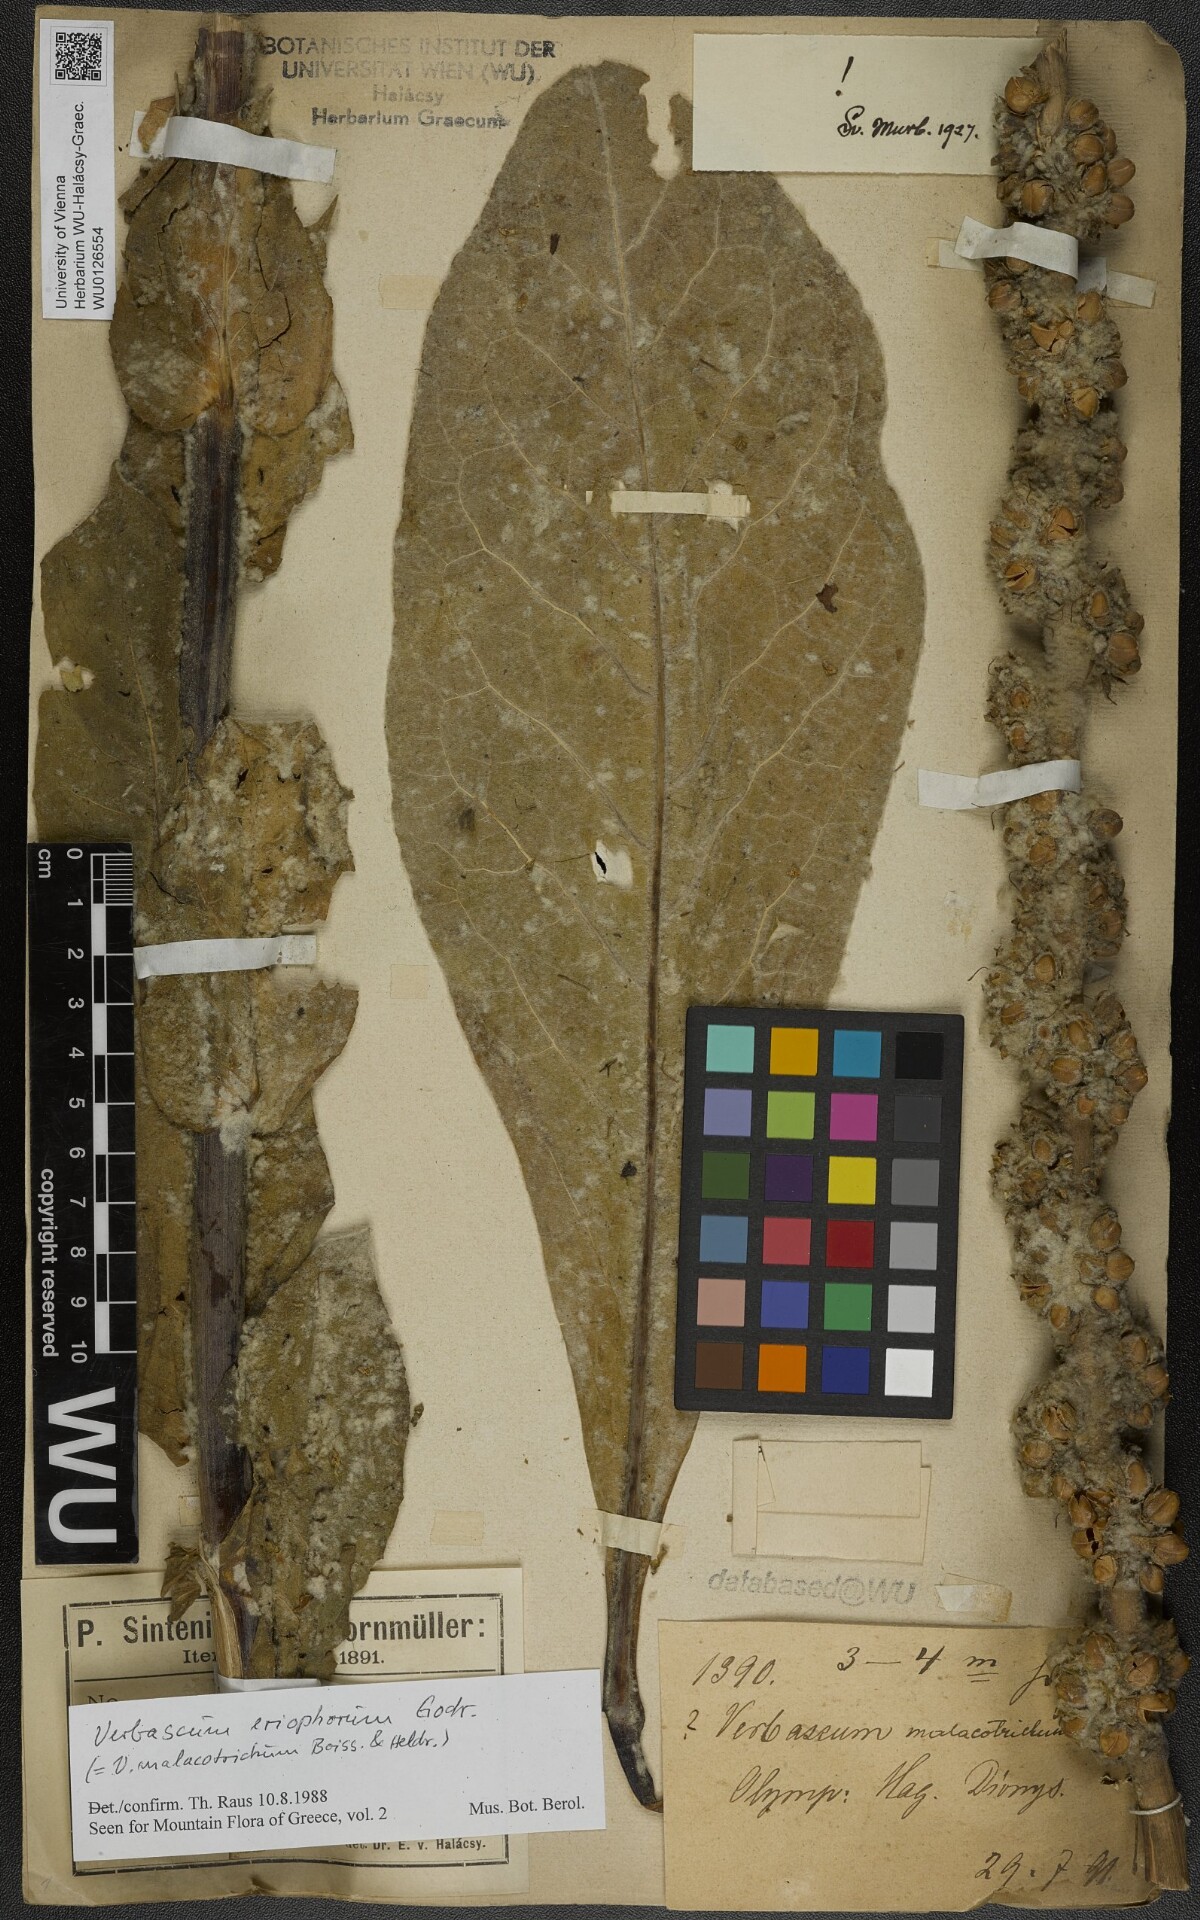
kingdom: Plantae
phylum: Tracheophyta
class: Magnoliopsida
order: Lamiales
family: Scrophulariaceae
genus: Verbascum
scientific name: Verbascum eriophorum
